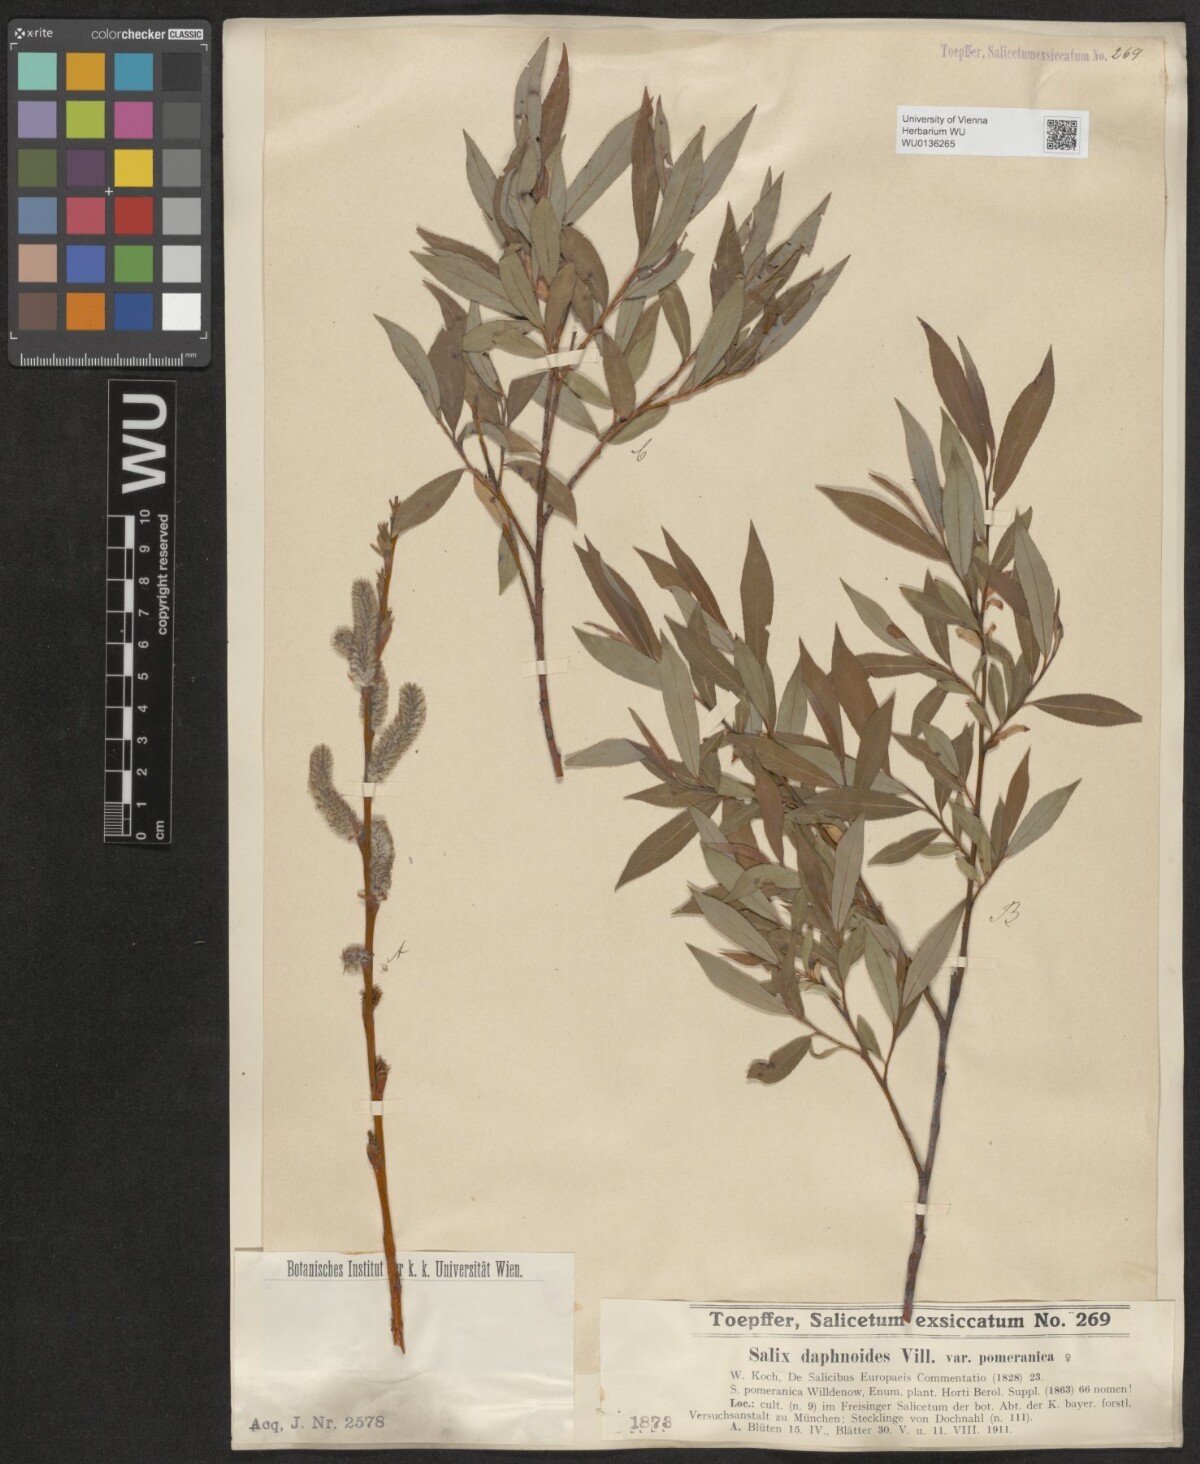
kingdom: Plantae
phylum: Tracheophyta
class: Magnoliopsida
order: Malpighiales
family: Salicaceae
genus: Salix
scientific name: Salix daphnoides
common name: European violet-willow
